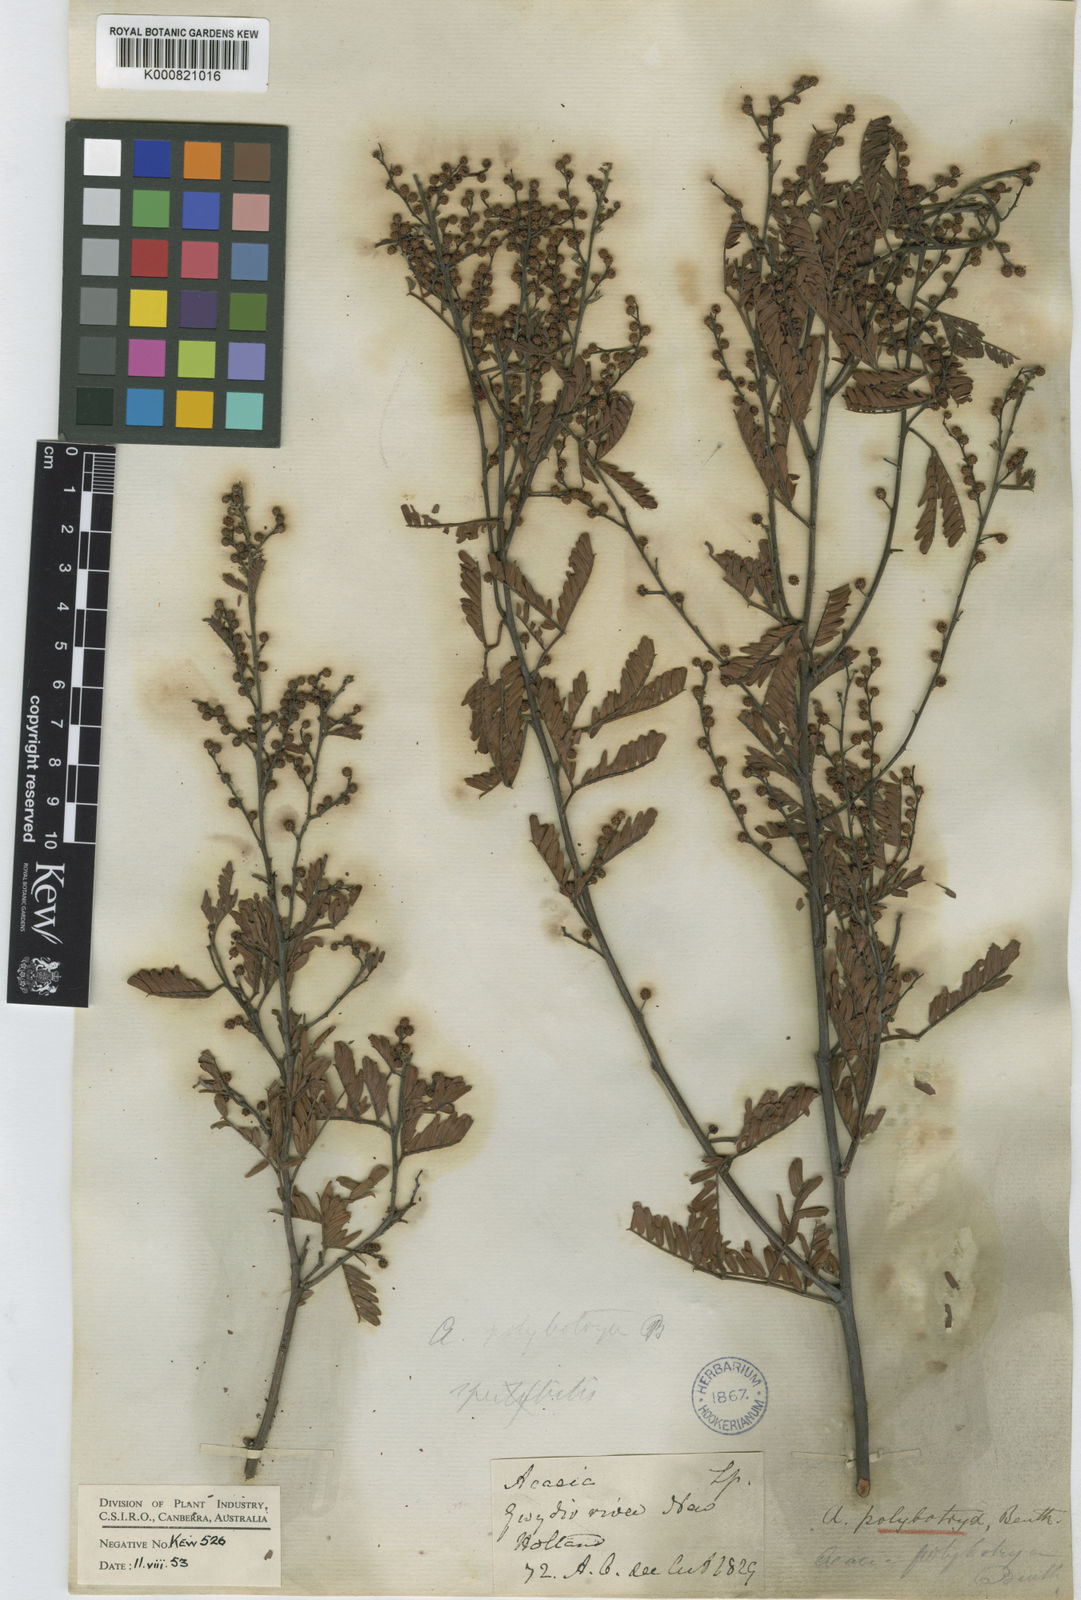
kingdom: Plantae
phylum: Tracheophyta
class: Magnoliopsida
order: Fabales
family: Fabaceae
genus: Acacia
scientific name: Acacia polybotrya
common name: Western silver wattle
